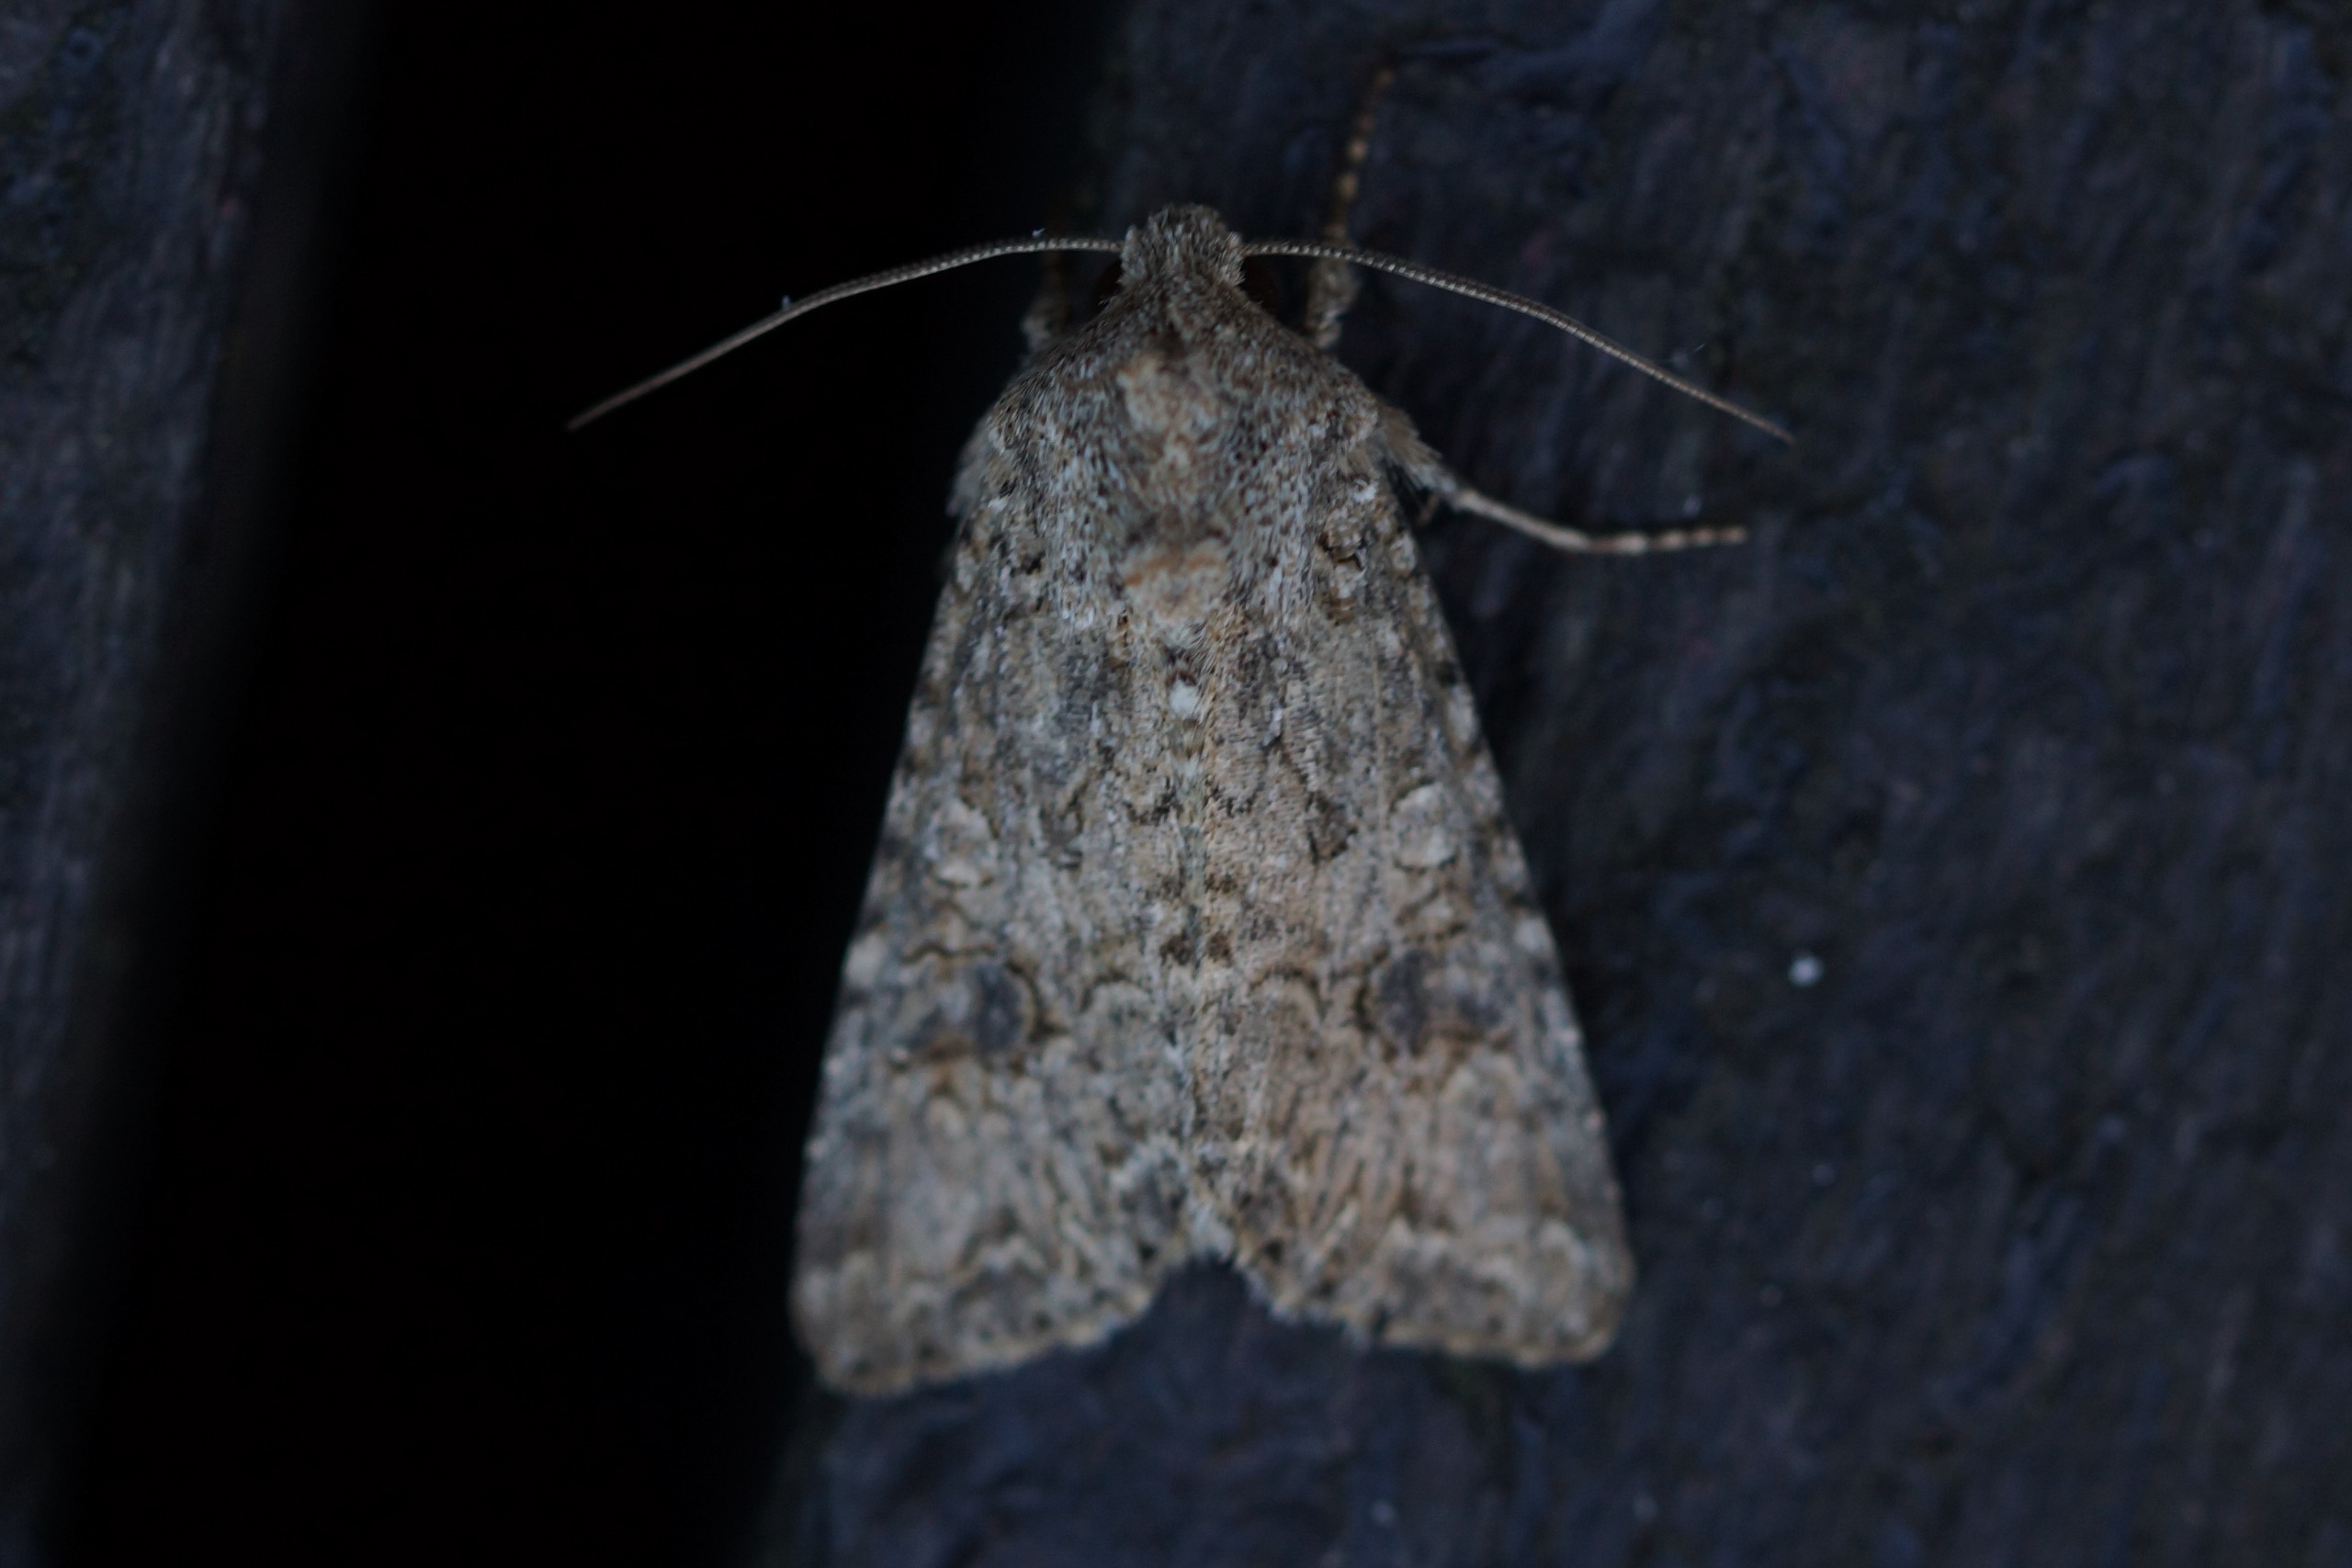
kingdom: Animalia
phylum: Arthropoda
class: Insecta
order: Lepidoptera
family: Noctuidae
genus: Anarta
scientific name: Anarta trifolii
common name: Bedeugle
